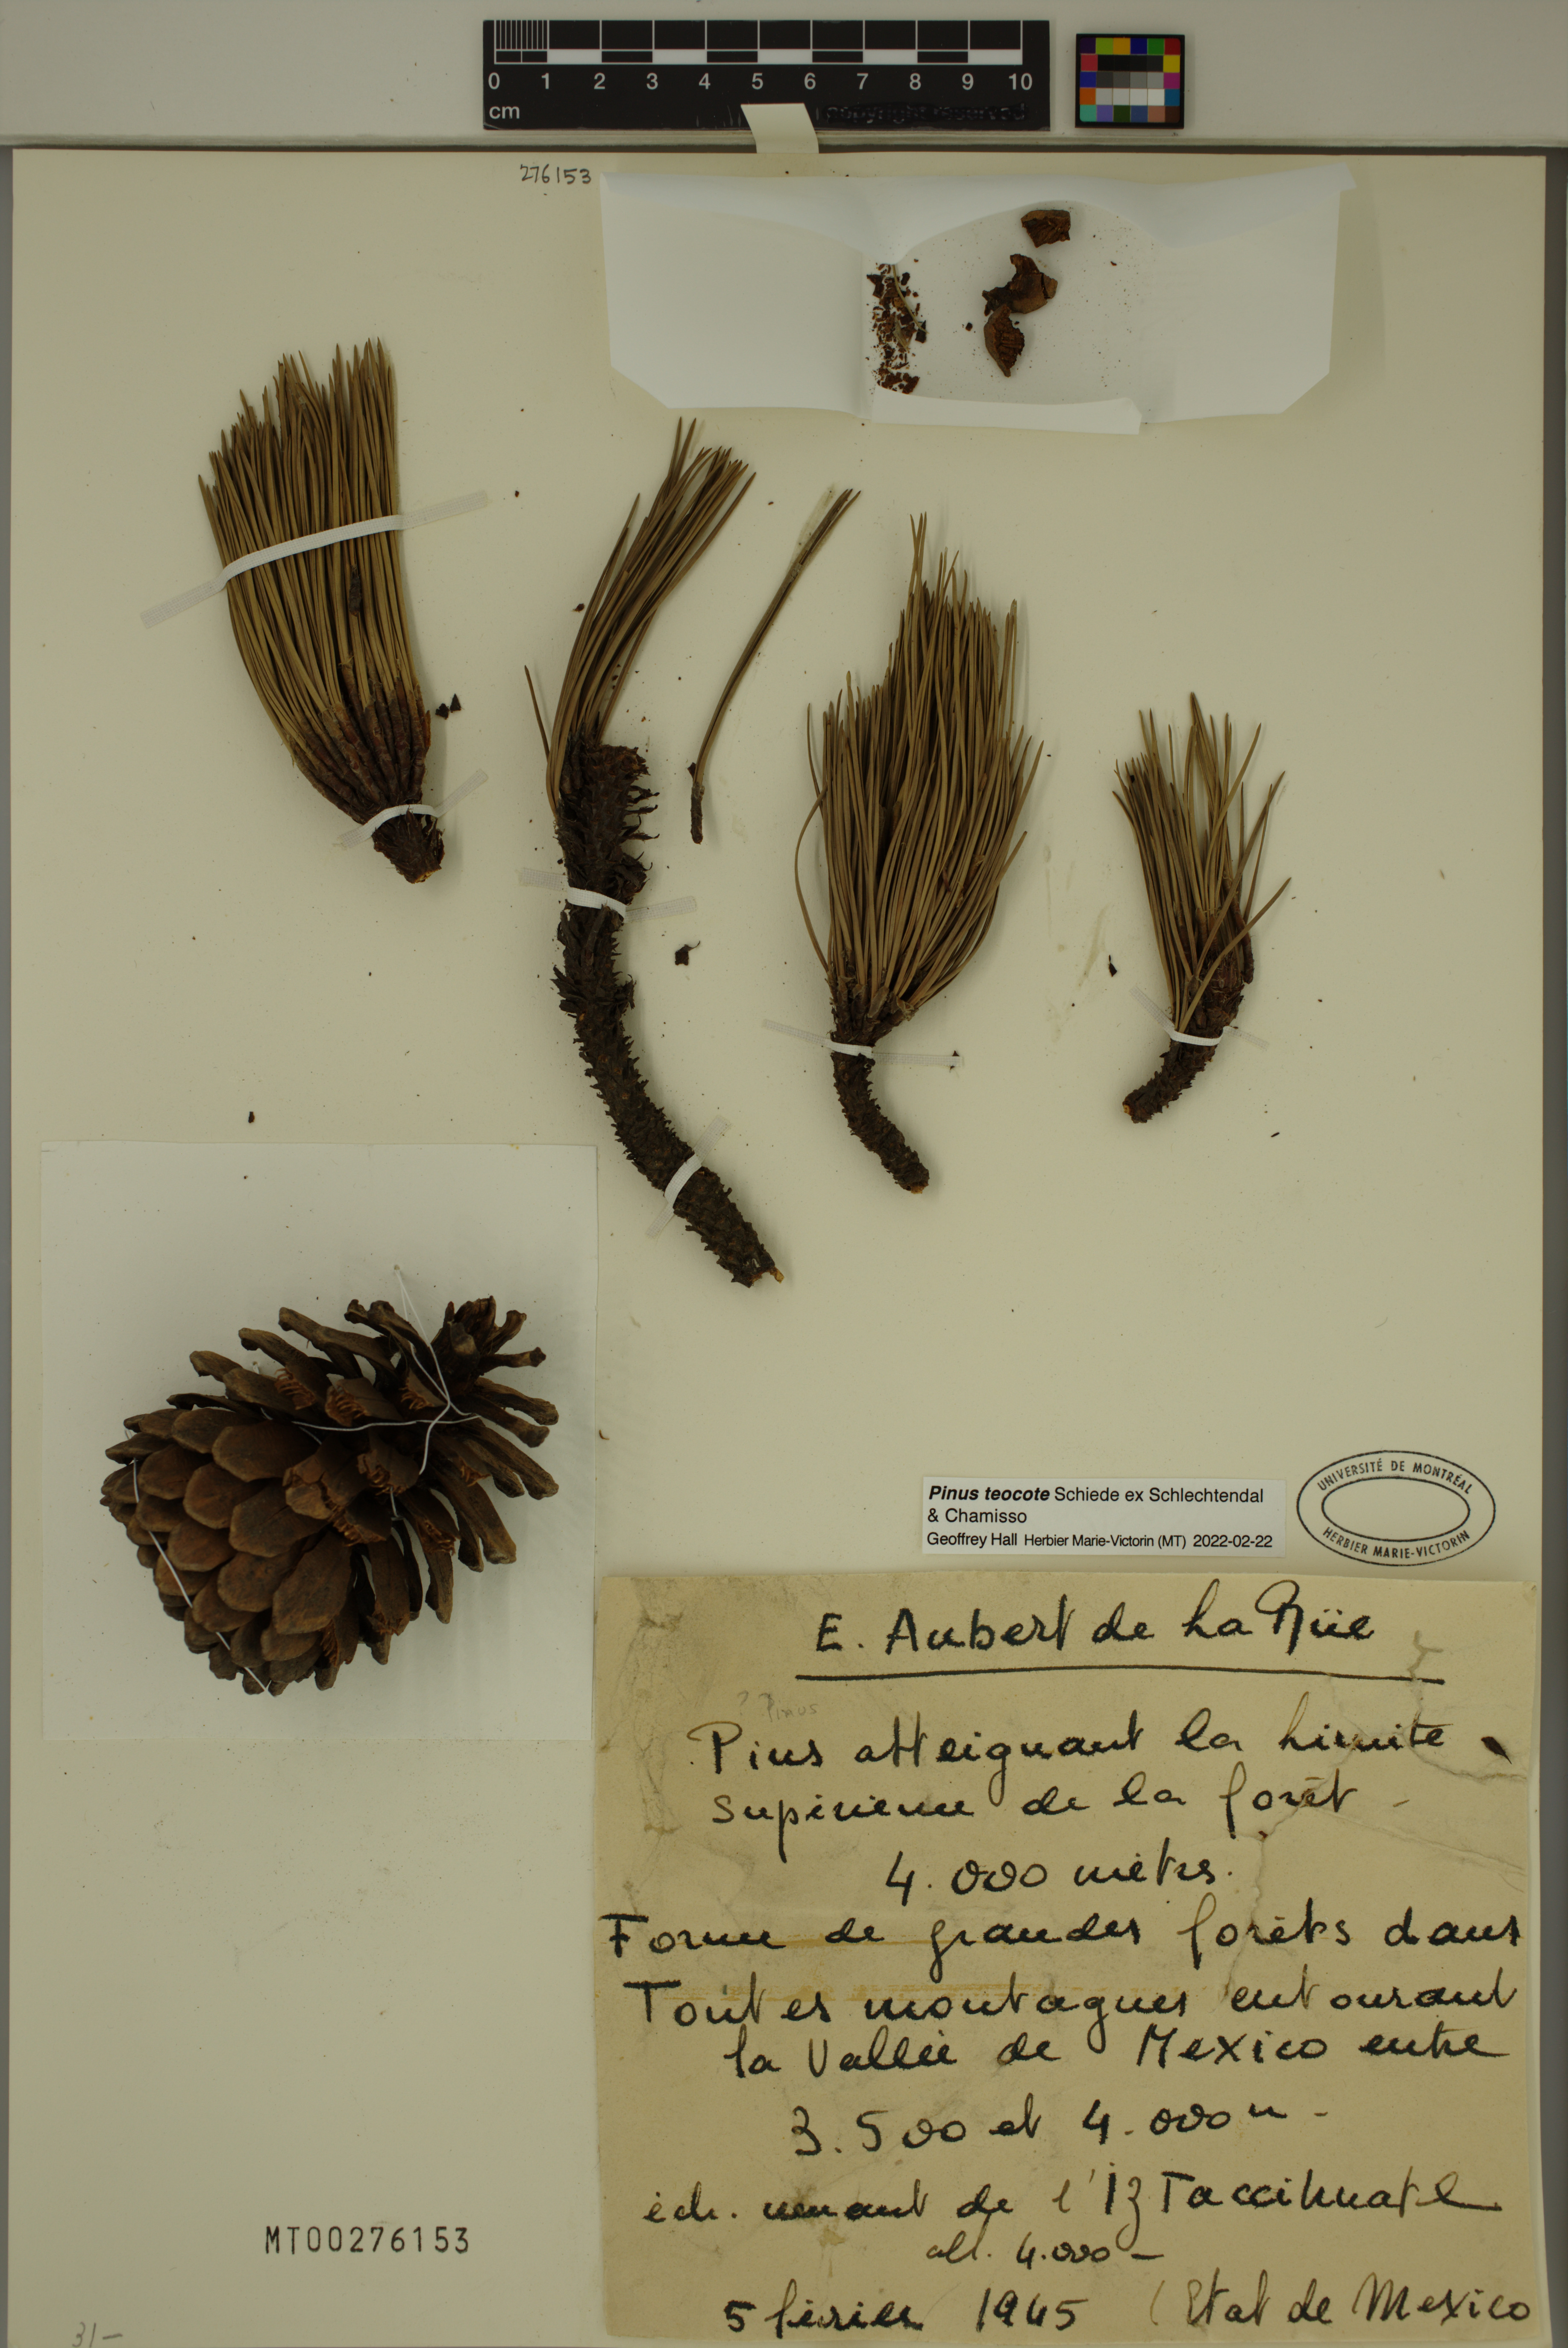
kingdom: Plantae
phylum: Tracheophyta
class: Pinopsida
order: Pinales
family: Pinaceae
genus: Pinus
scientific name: Pinus teocote
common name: Aztec pine
